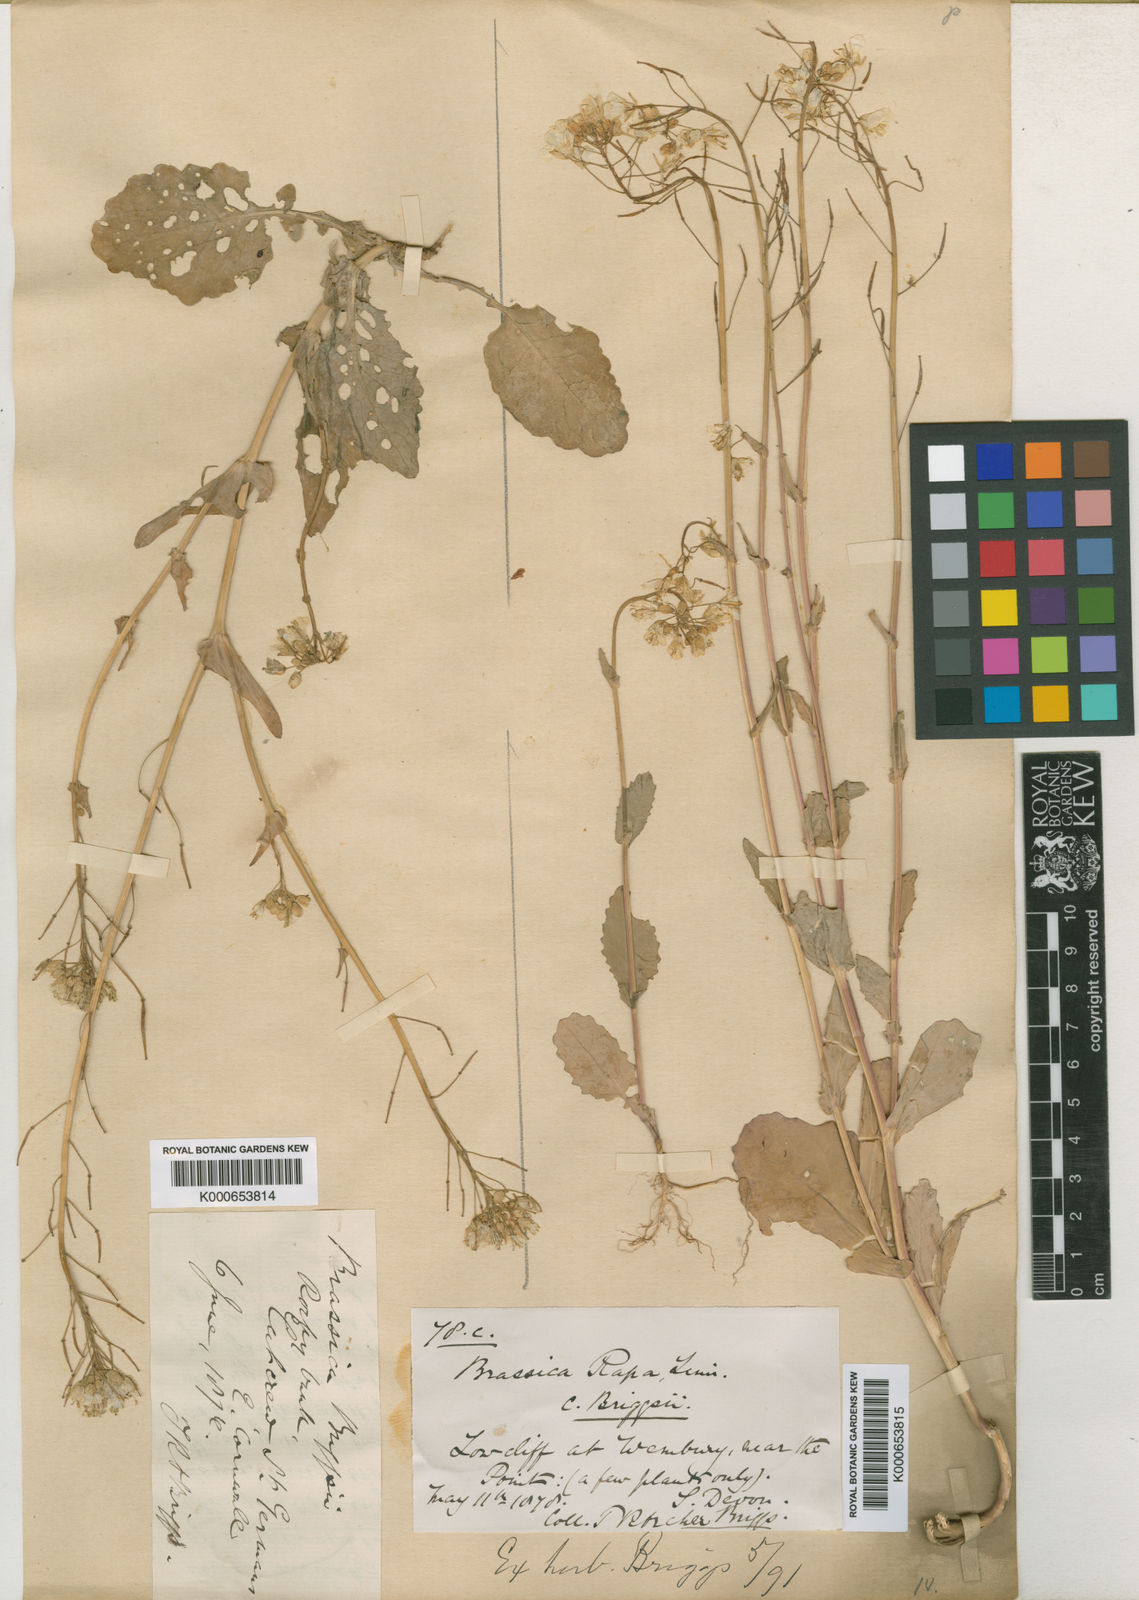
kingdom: Plantae
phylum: Tracheophyta
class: Magnoliopsida
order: Brassicales
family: Brassicaceae
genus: Brassica
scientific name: Brassica rapa
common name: Field mustard
